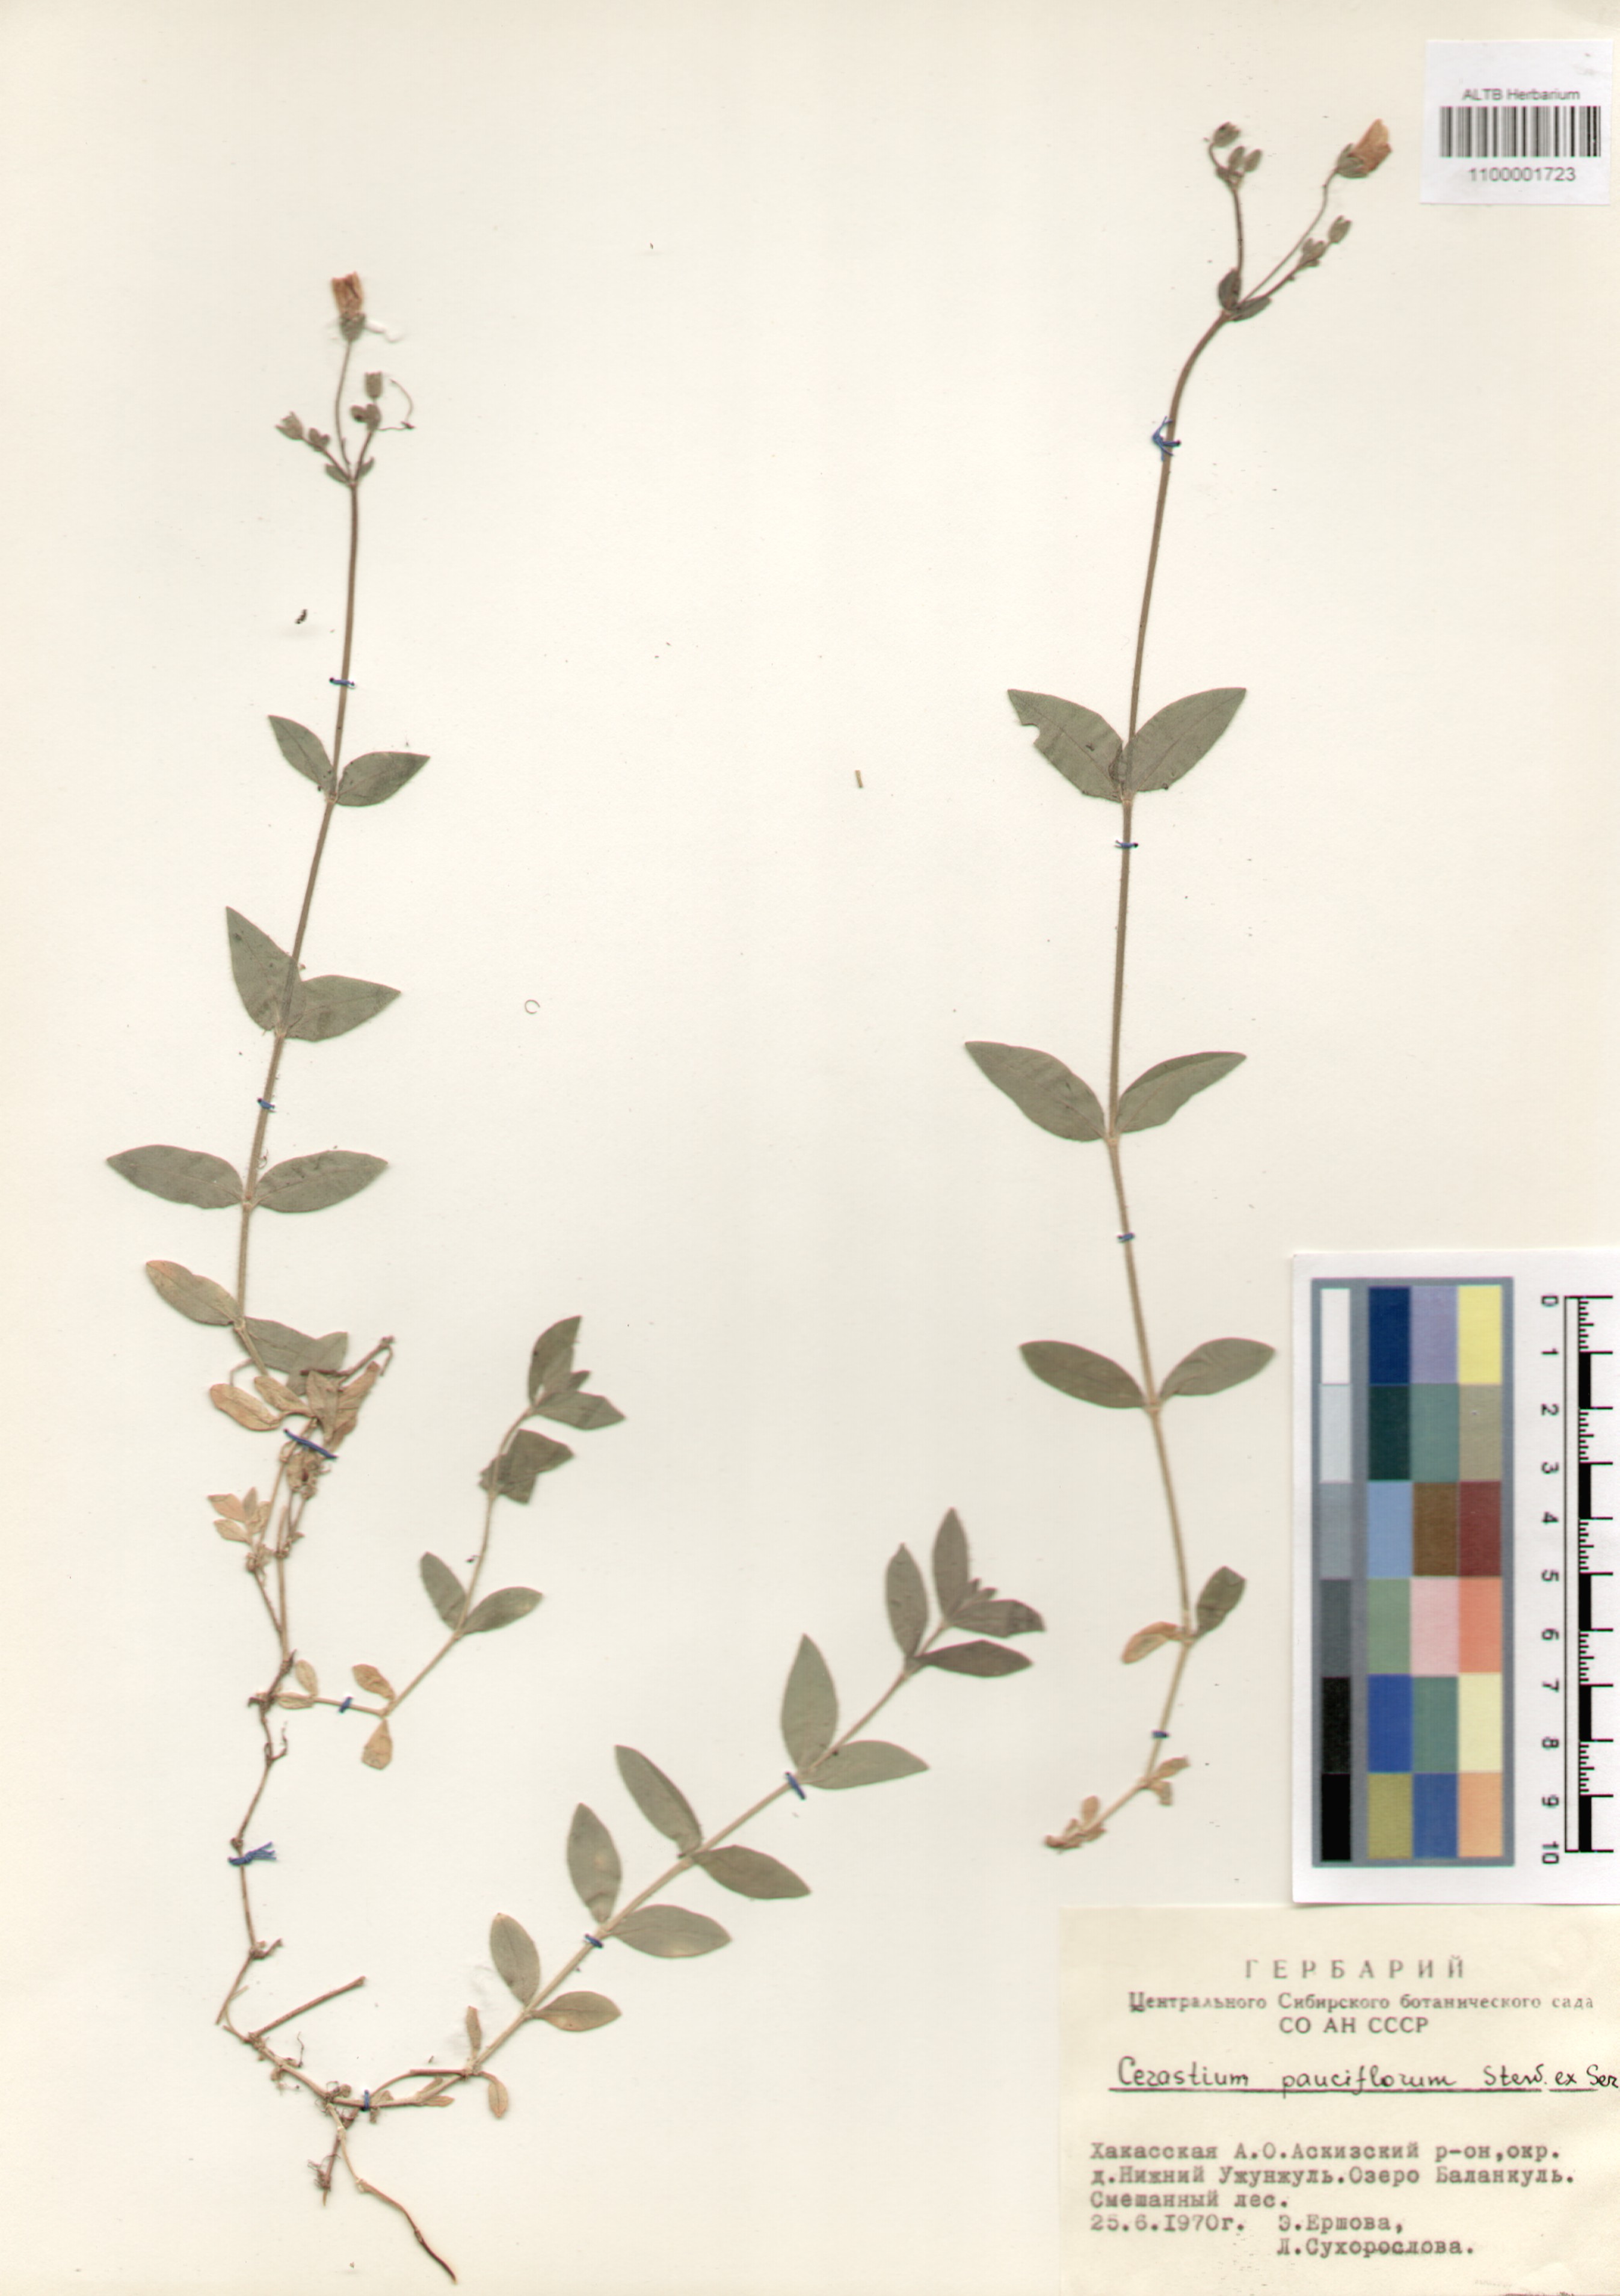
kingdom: Plantae
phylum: Tracheophyta
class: Magnoliopsida
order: Caryophyllales
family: Caryophyllaceae
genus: Cerastium
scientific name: Cerastium pauciflorum
